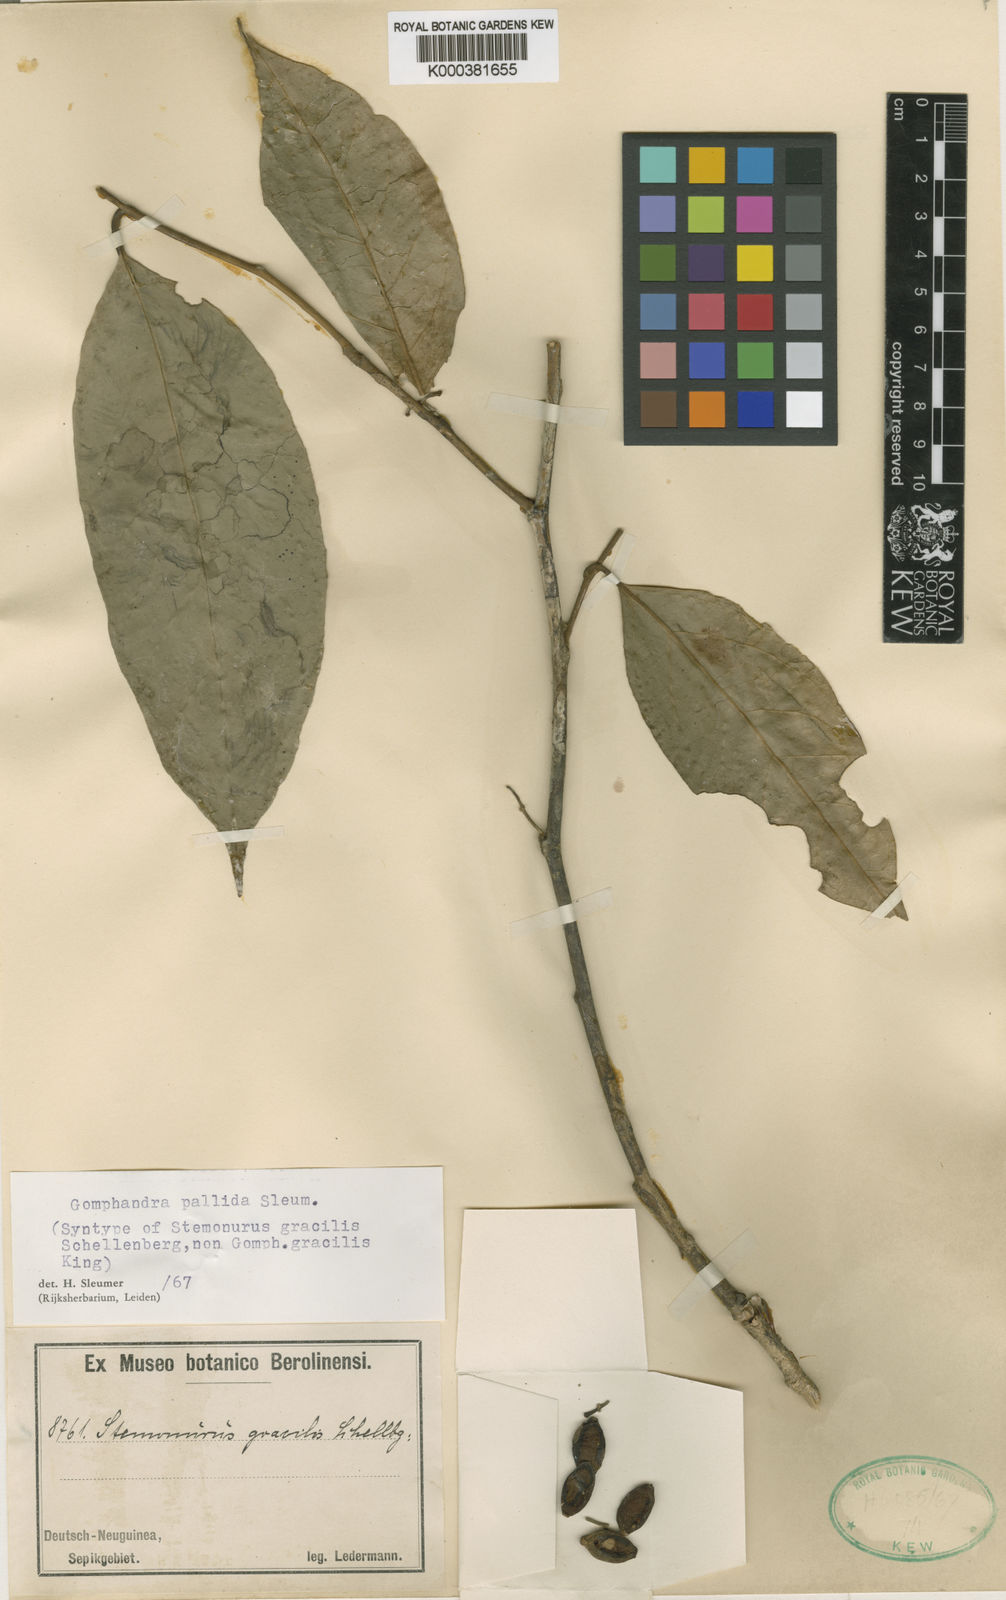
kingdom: Plantae
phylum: Tracheophyta
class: Magnoliopsida
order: Cardiopteridales
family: Stemonuraceae
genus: Gomphandra
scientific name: Gomphandra australiana
